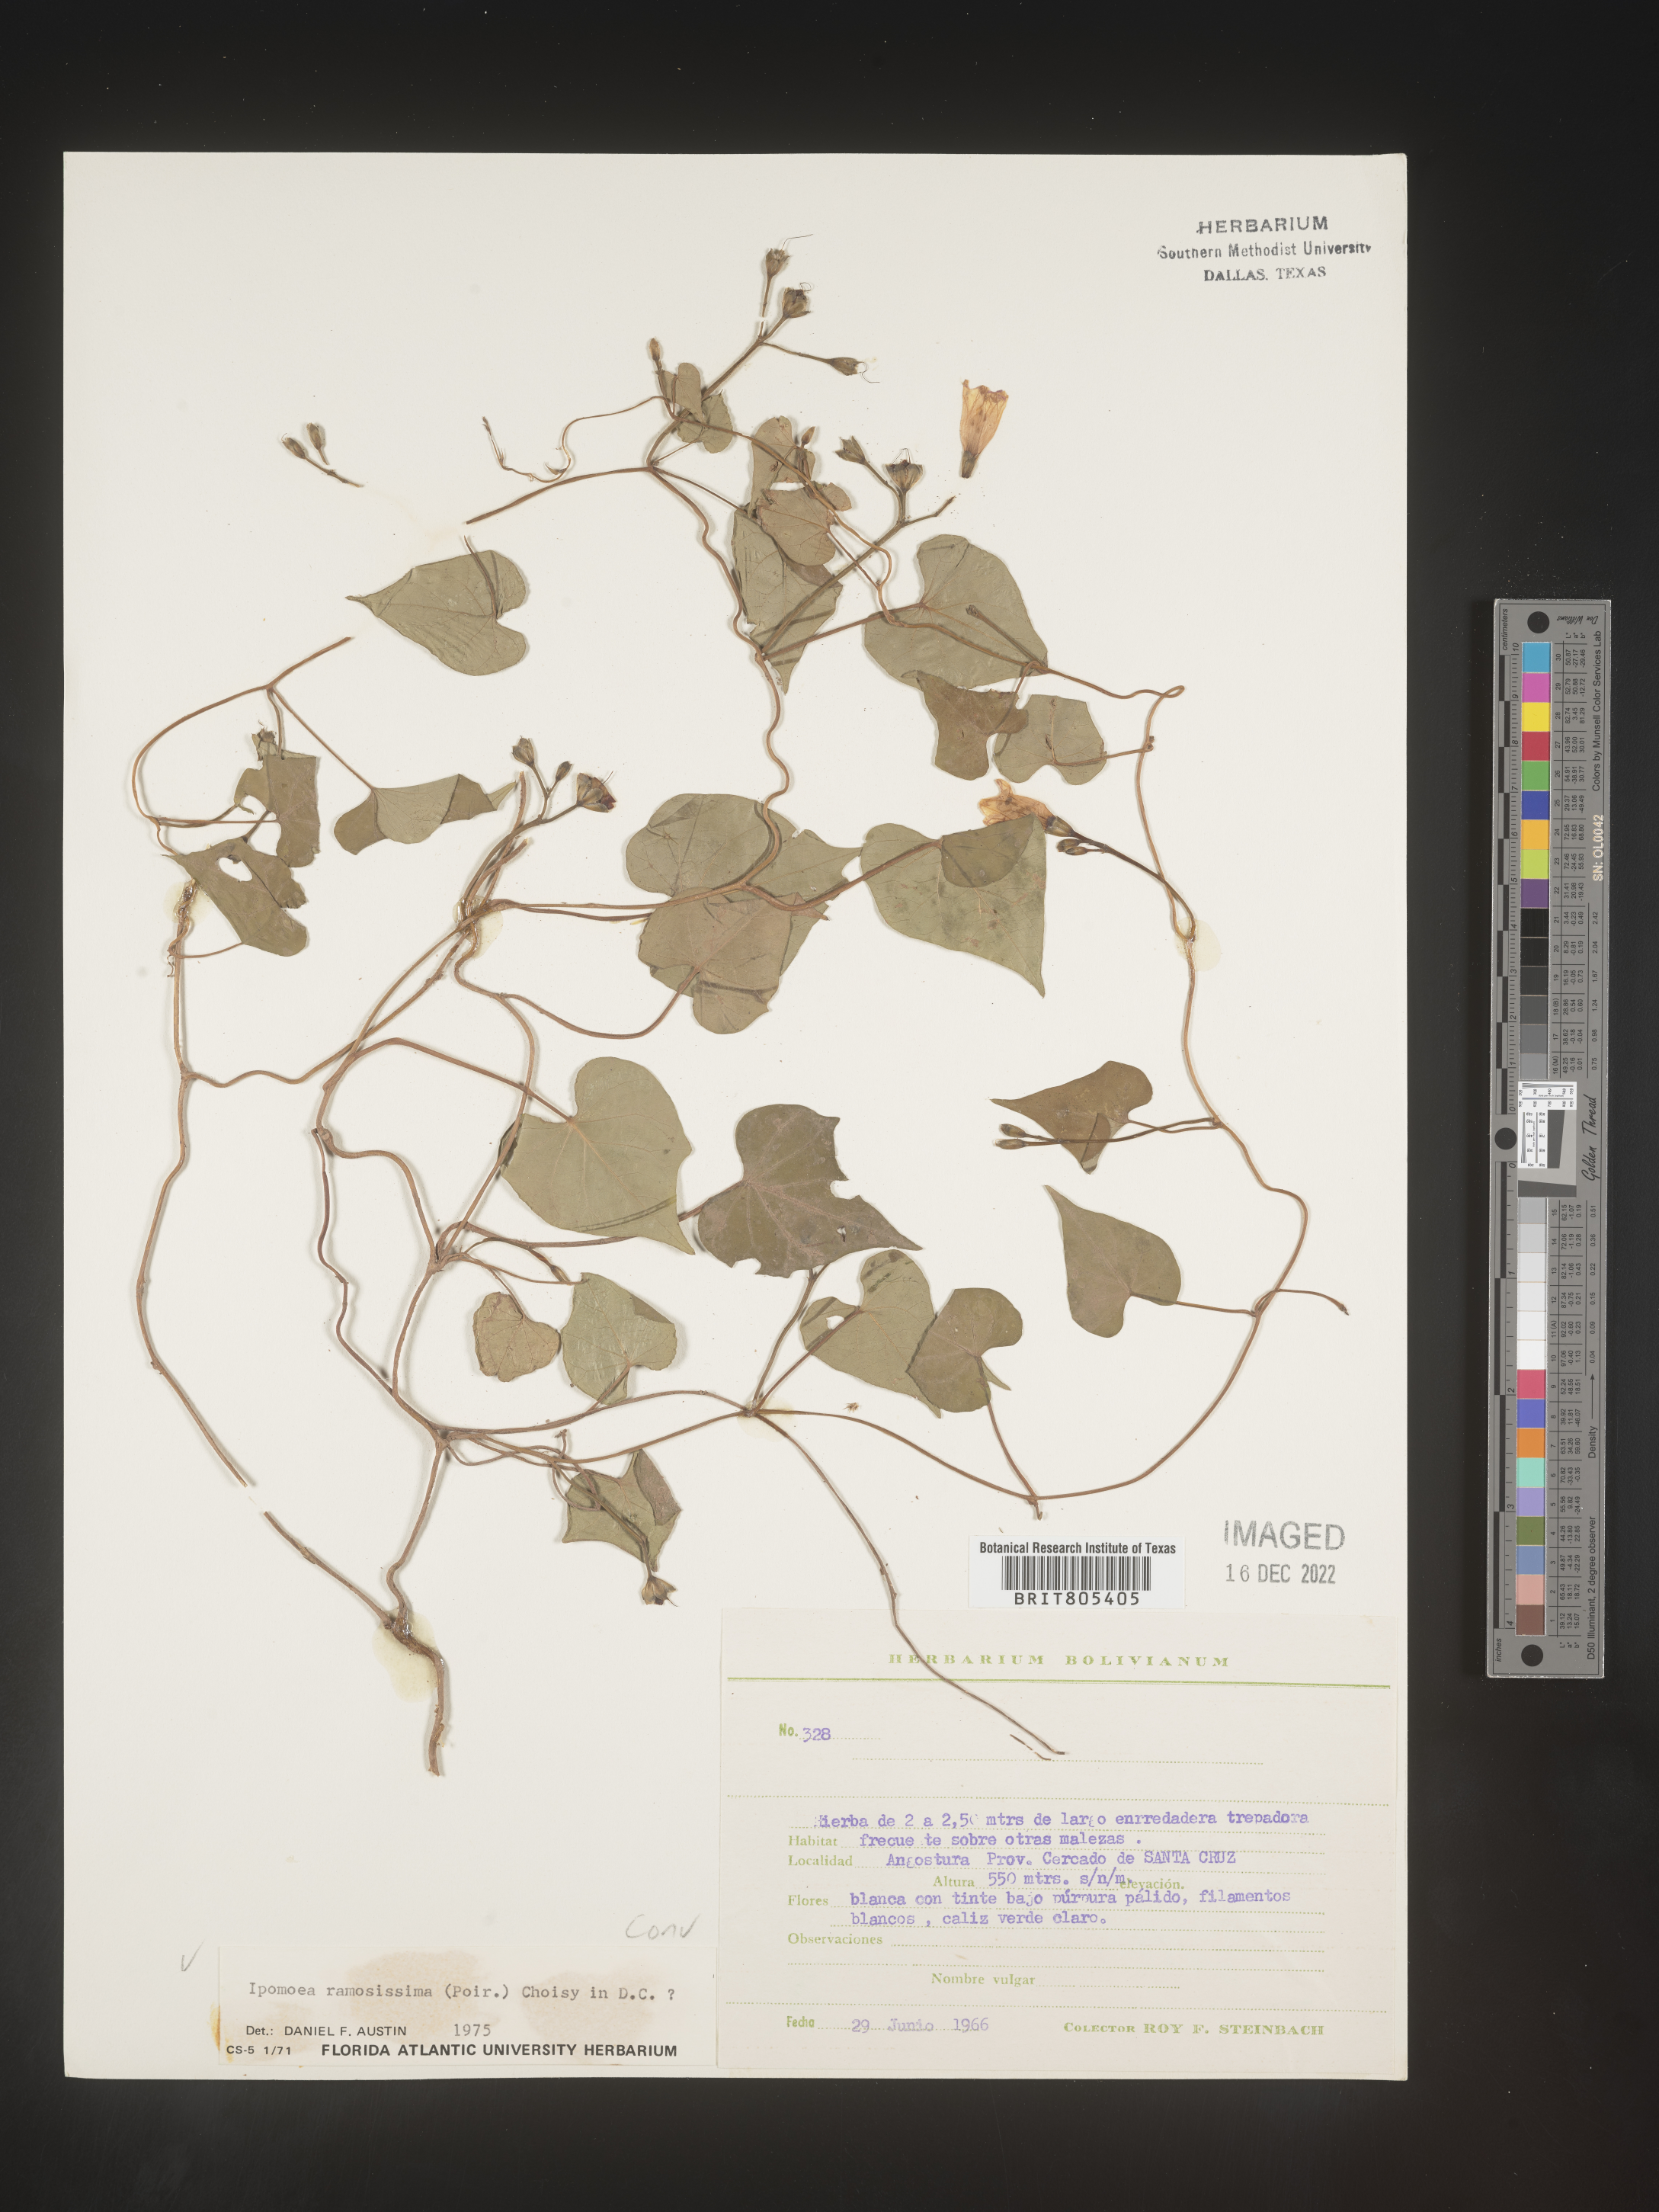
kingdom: Plantae
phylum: Tracheophyta
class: Magnoliopsida
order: Solanales
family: Convolvulaceae
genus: Ipomoea
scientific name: Ipomoea
